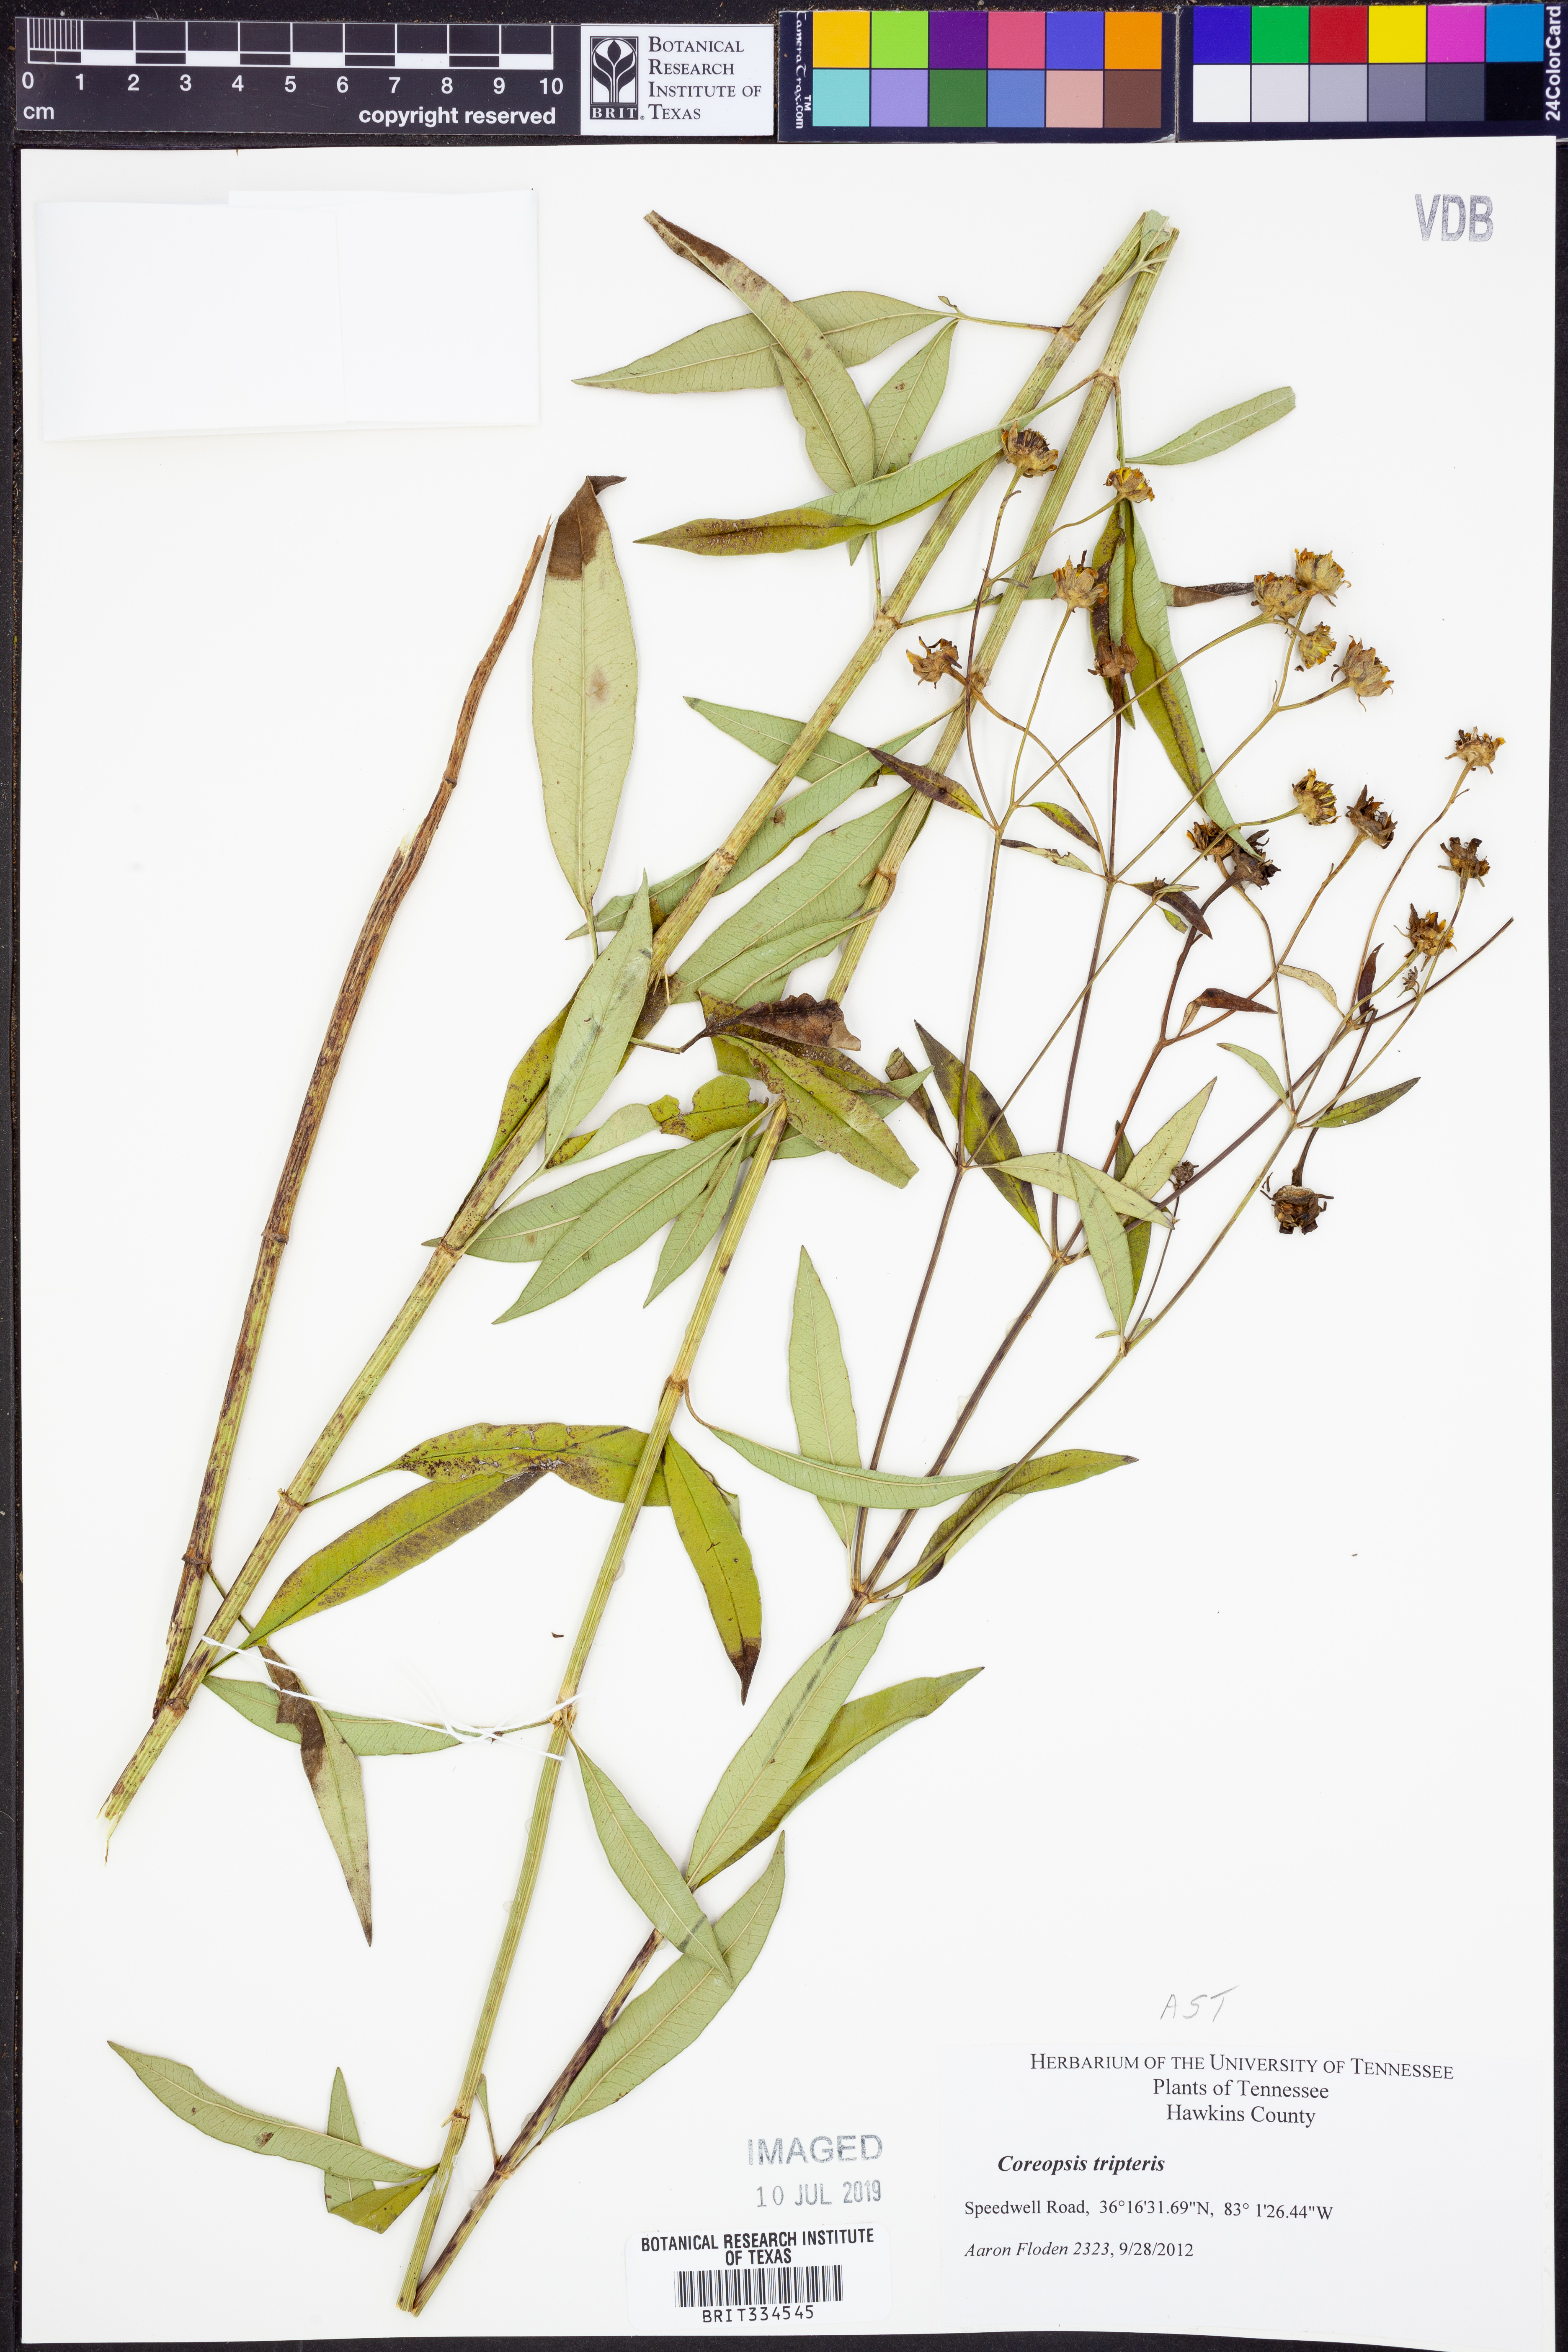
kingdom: Plantae
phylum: Tracheophyta
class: Magnoliopsida
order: Asterales
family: Asteraceae
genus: Coreopsis
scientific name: Coreopsis tripteris
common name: Tall coreopsis
